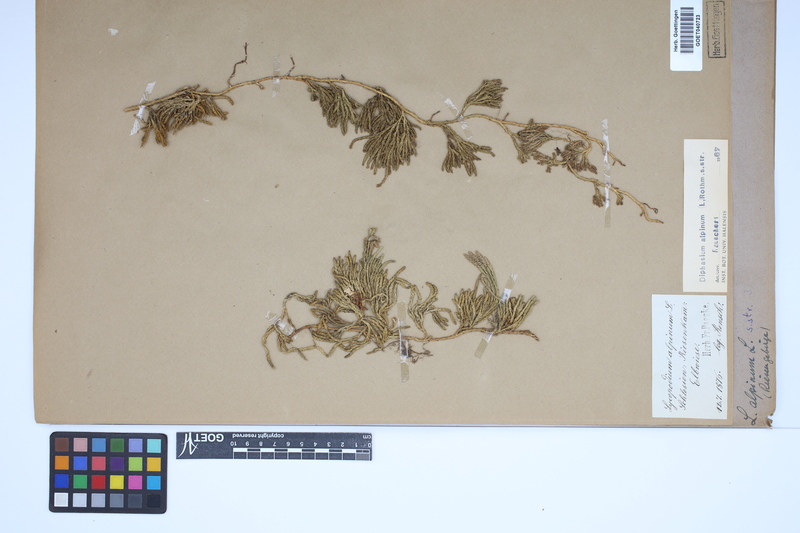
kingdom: Plantae
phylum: Tracheophyta
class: Lycopodiopsida
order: Lycopodiales
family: Lycopodiaceae
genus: Diphasiastrum
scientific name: Diphasiastrum alpinum
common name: Alpine clubmoss
